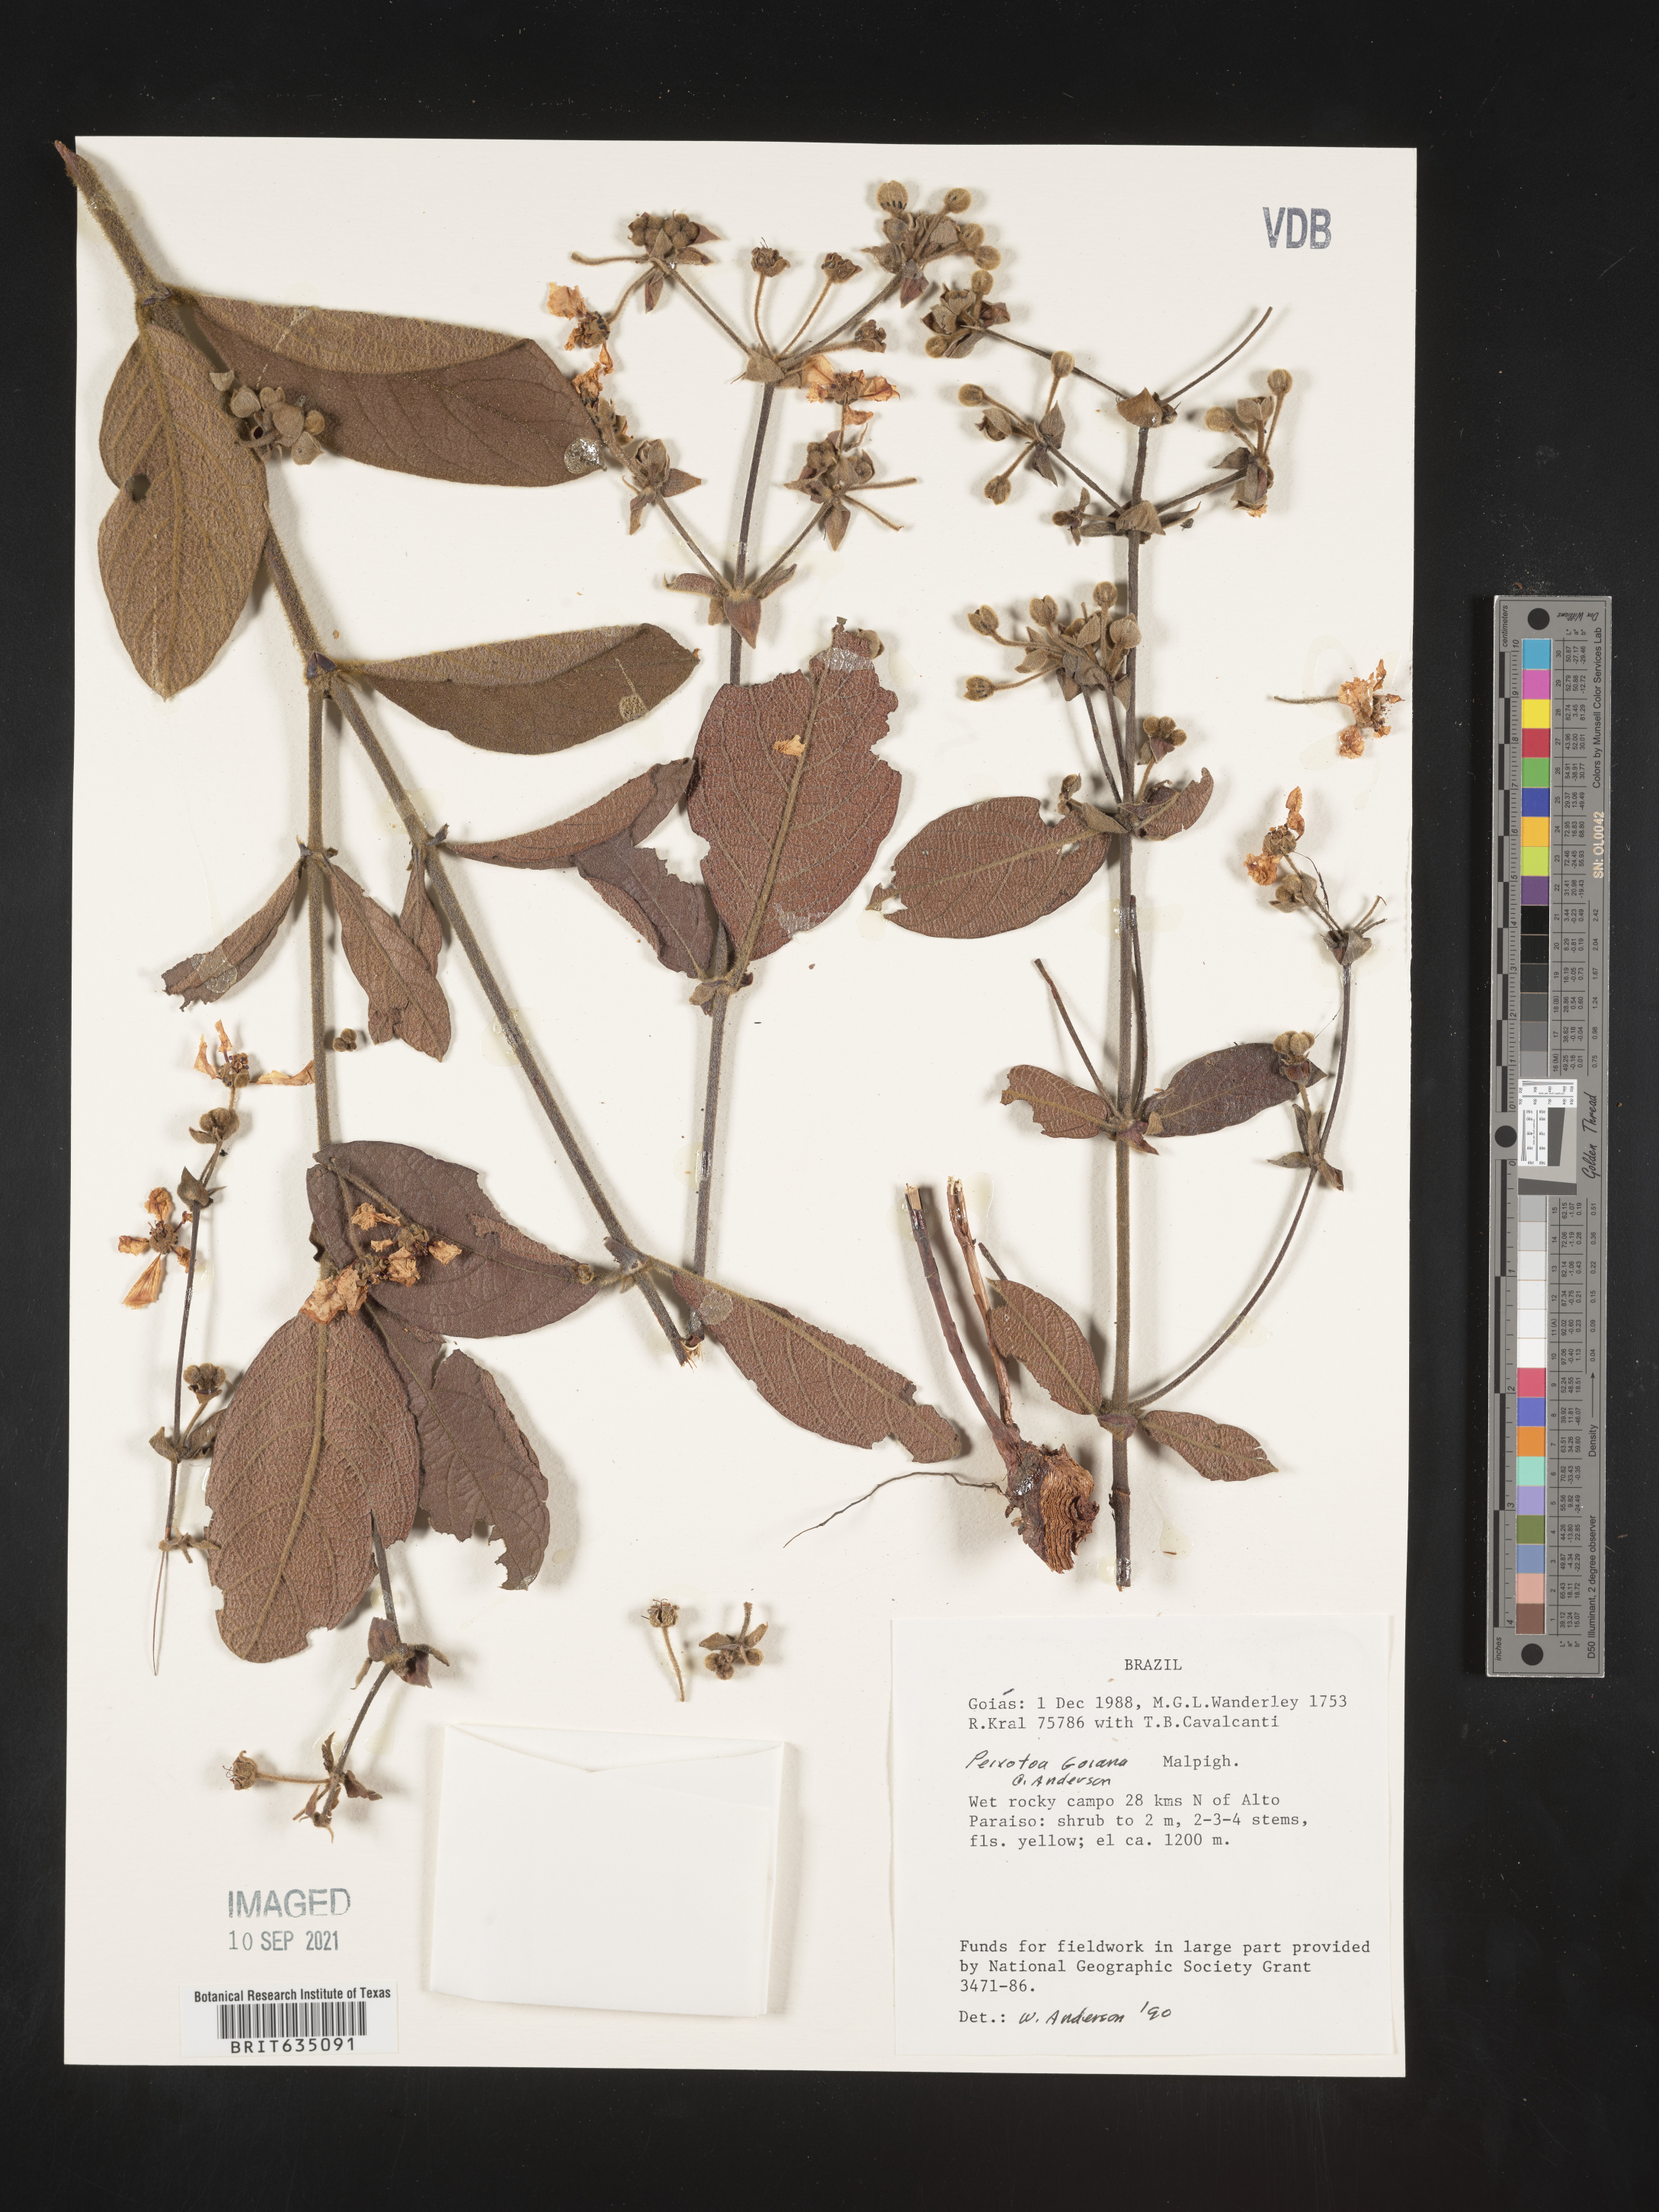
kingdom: Plantae
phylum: Tracheophyta
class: Magnoliopsida
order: Malpighiales
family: Malpighiaceae
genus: Peixotoa
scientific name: Peixotoa
